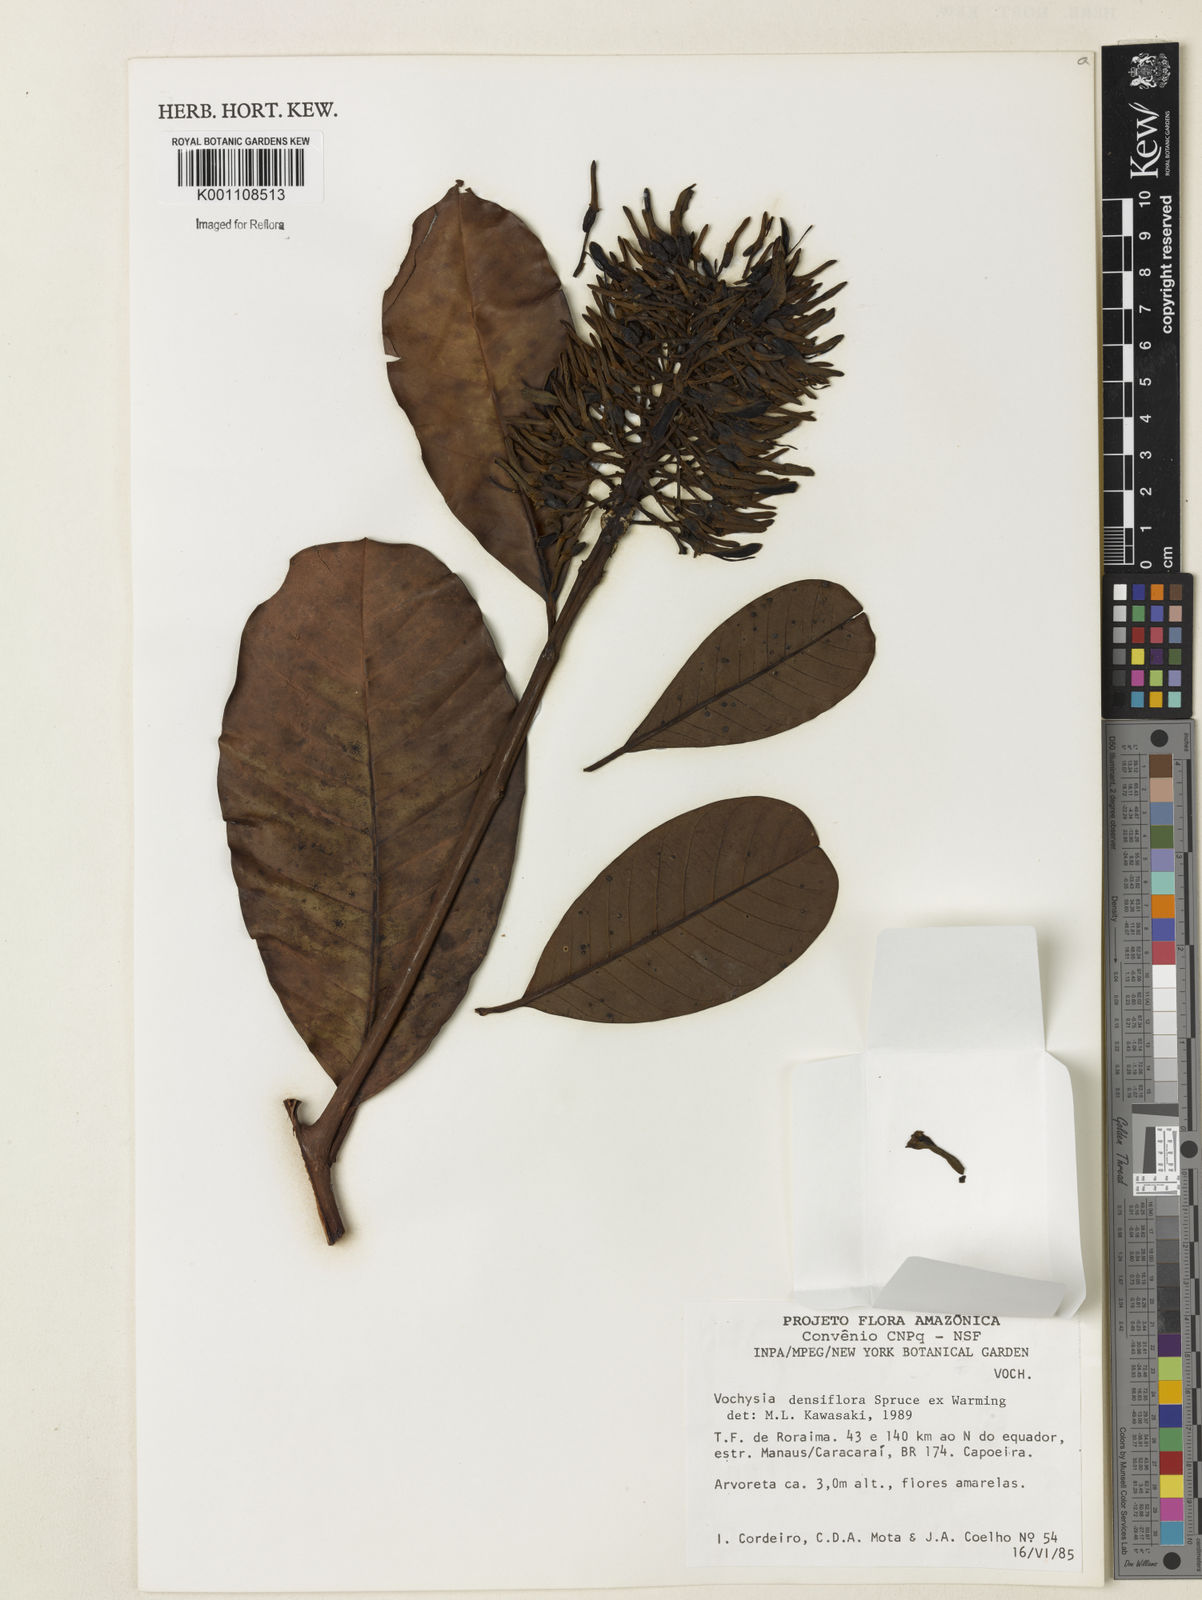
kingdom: Plantae
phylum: Tracheophyta
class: Magnoliopsida
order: Myrtales
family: Vochysiaceae
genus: Vochysia
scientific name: Vochysia
